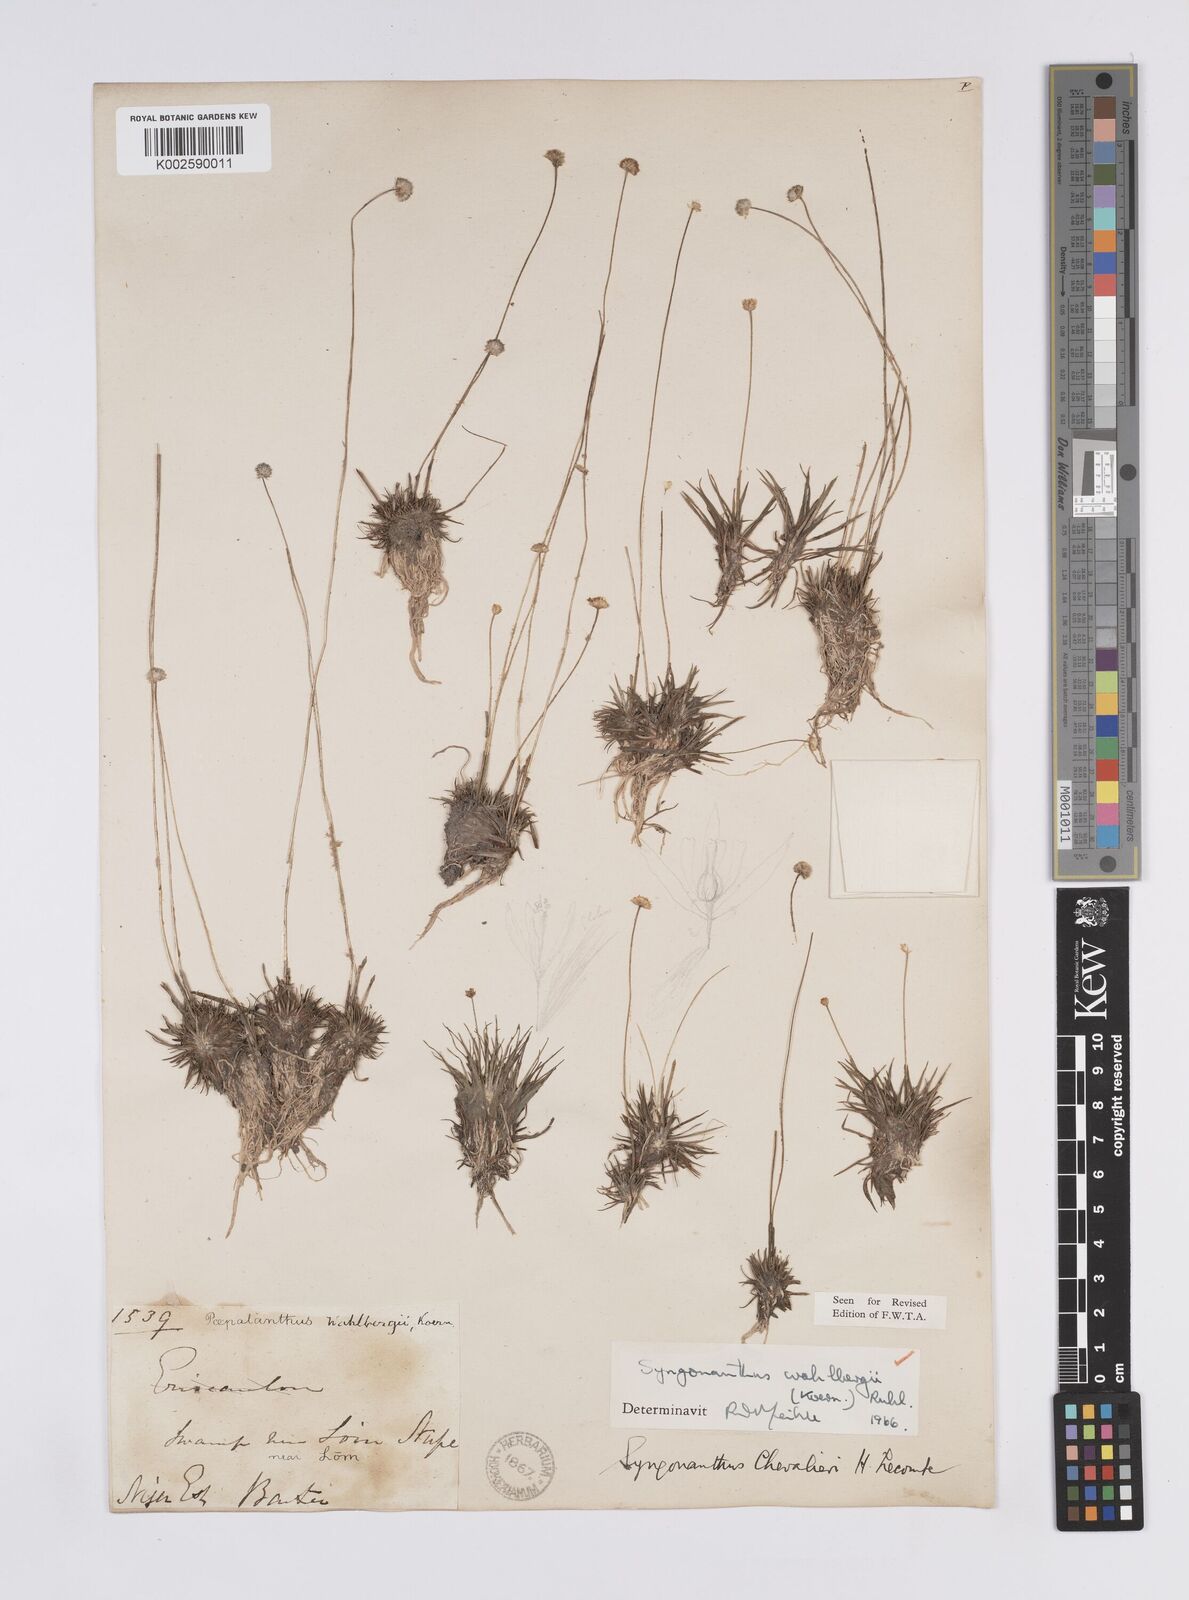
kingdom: Plantae
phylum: Tracheophyta
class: Liliopsida
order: Poales
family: Eriocaulaceae
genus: Syngonanthus
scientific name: Syngonanthus wahlbergii
